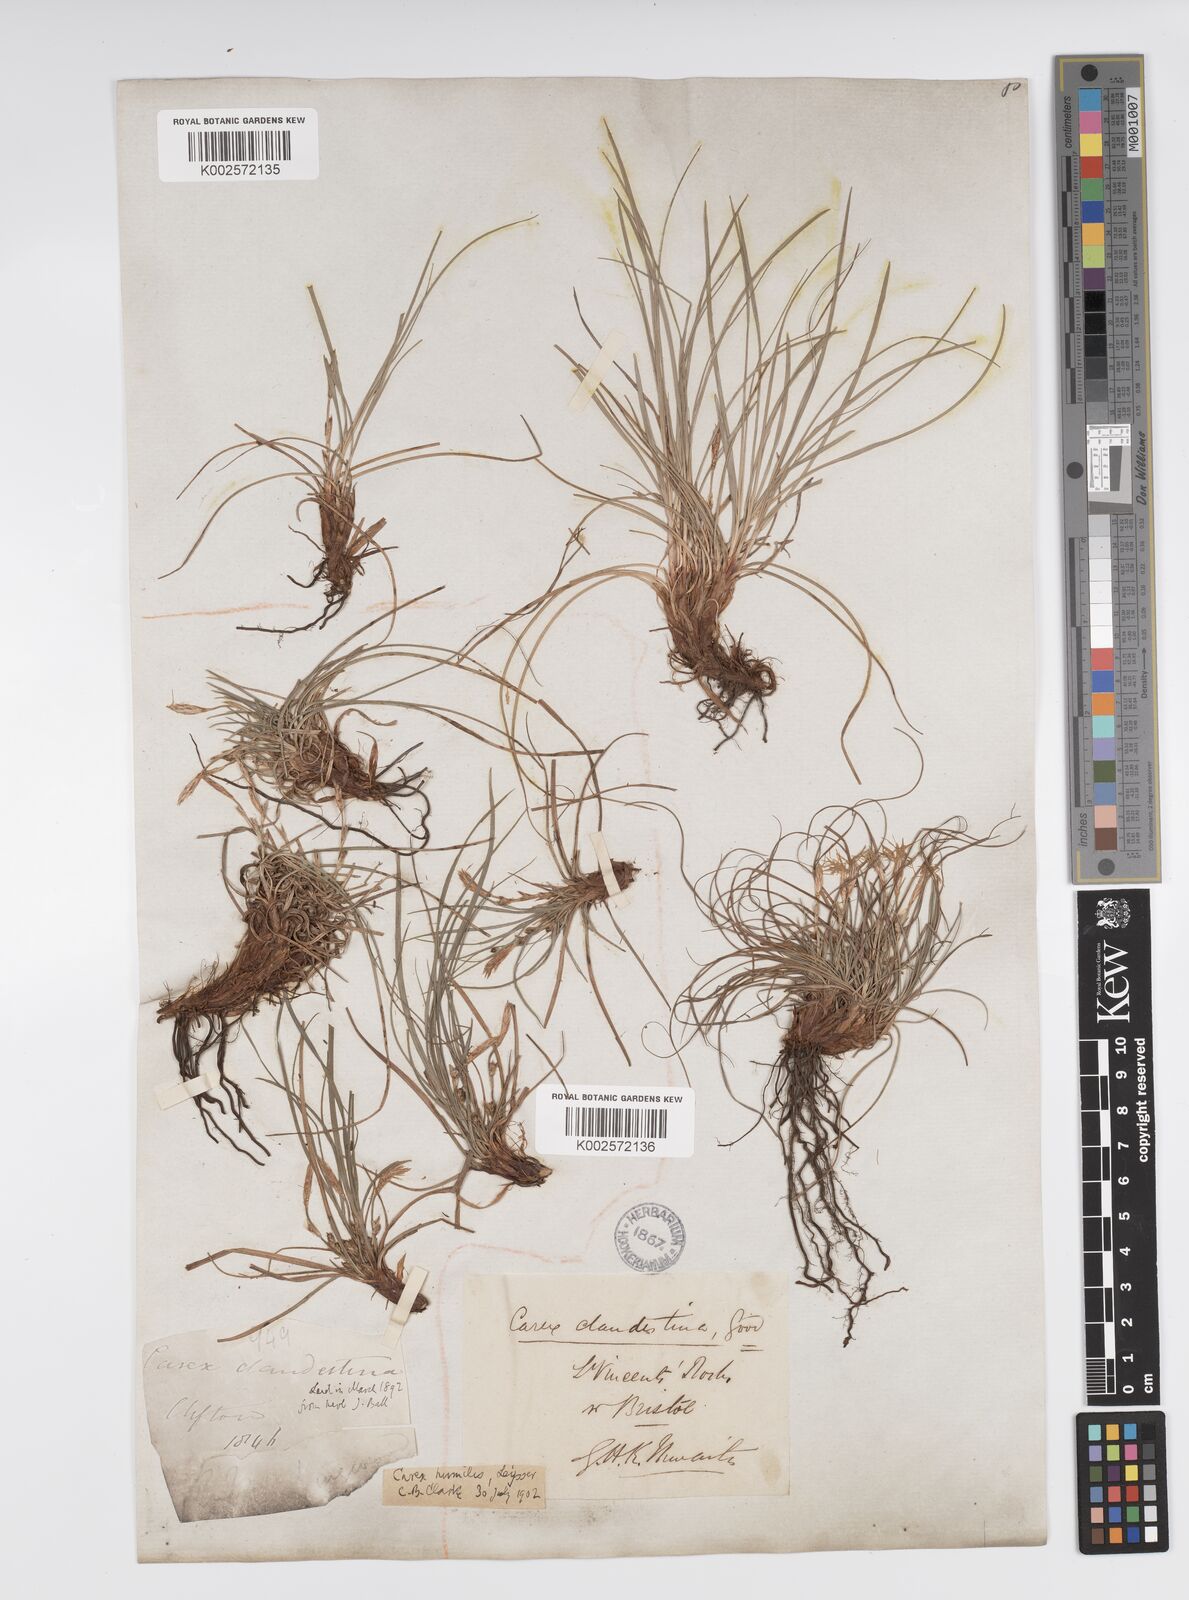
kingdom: Plantae
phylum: Tracheophyta
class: Liliopsida
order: Poales
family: Cyperaceae
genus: Carex
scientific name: Carex humilis
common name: Dwarf sedge
